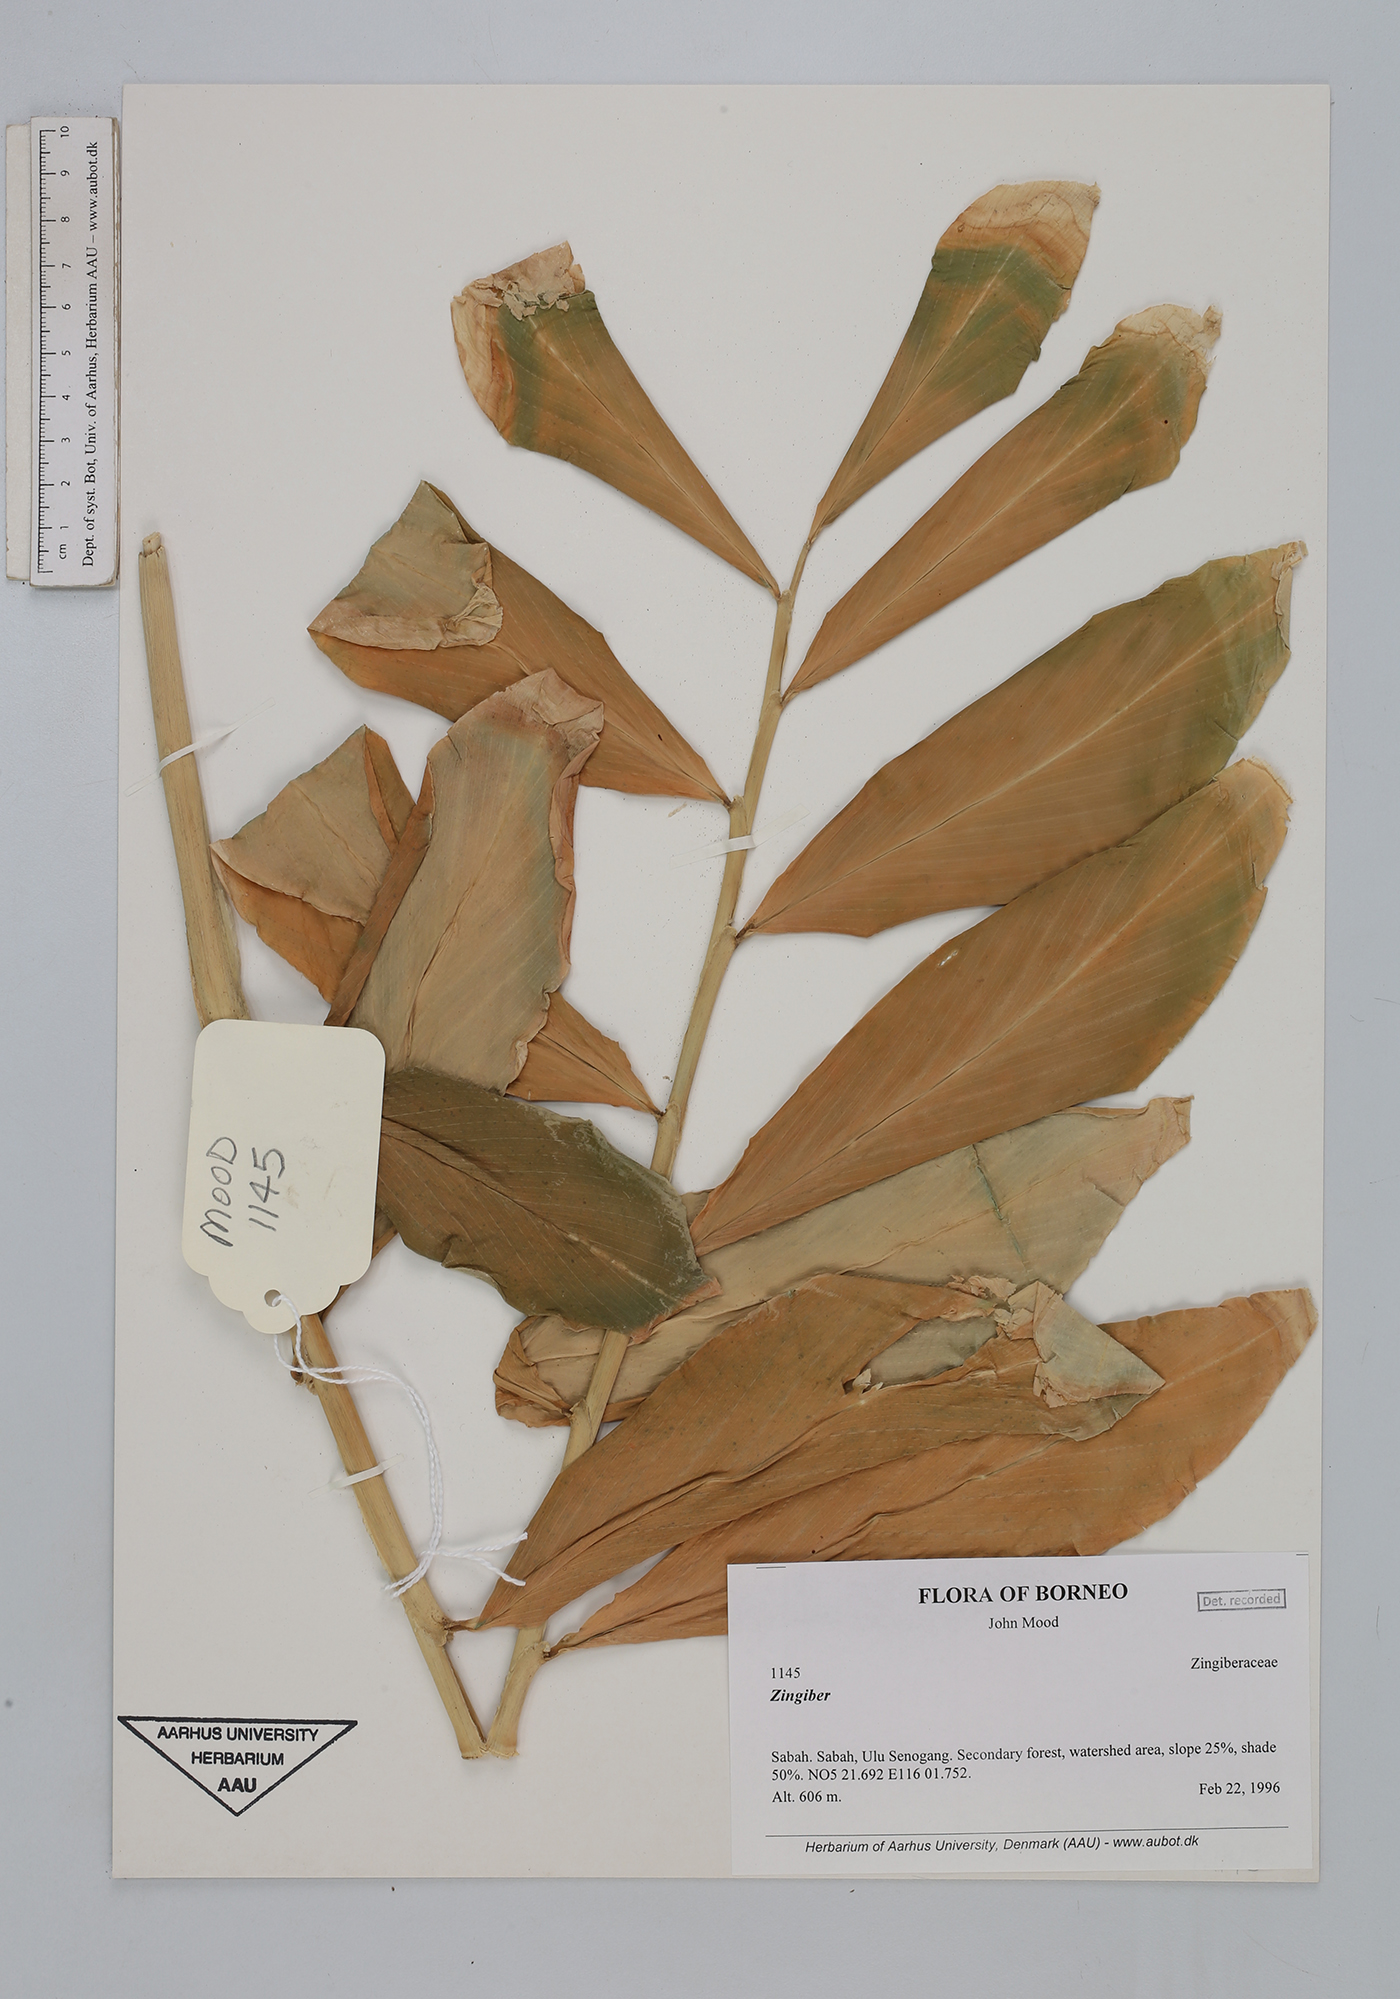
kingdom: Plantae
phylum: Tracheophyta
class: Liliopsida
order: Zingiberales
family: Zingiberaceae
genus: Zingiber
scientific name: Zingiber
